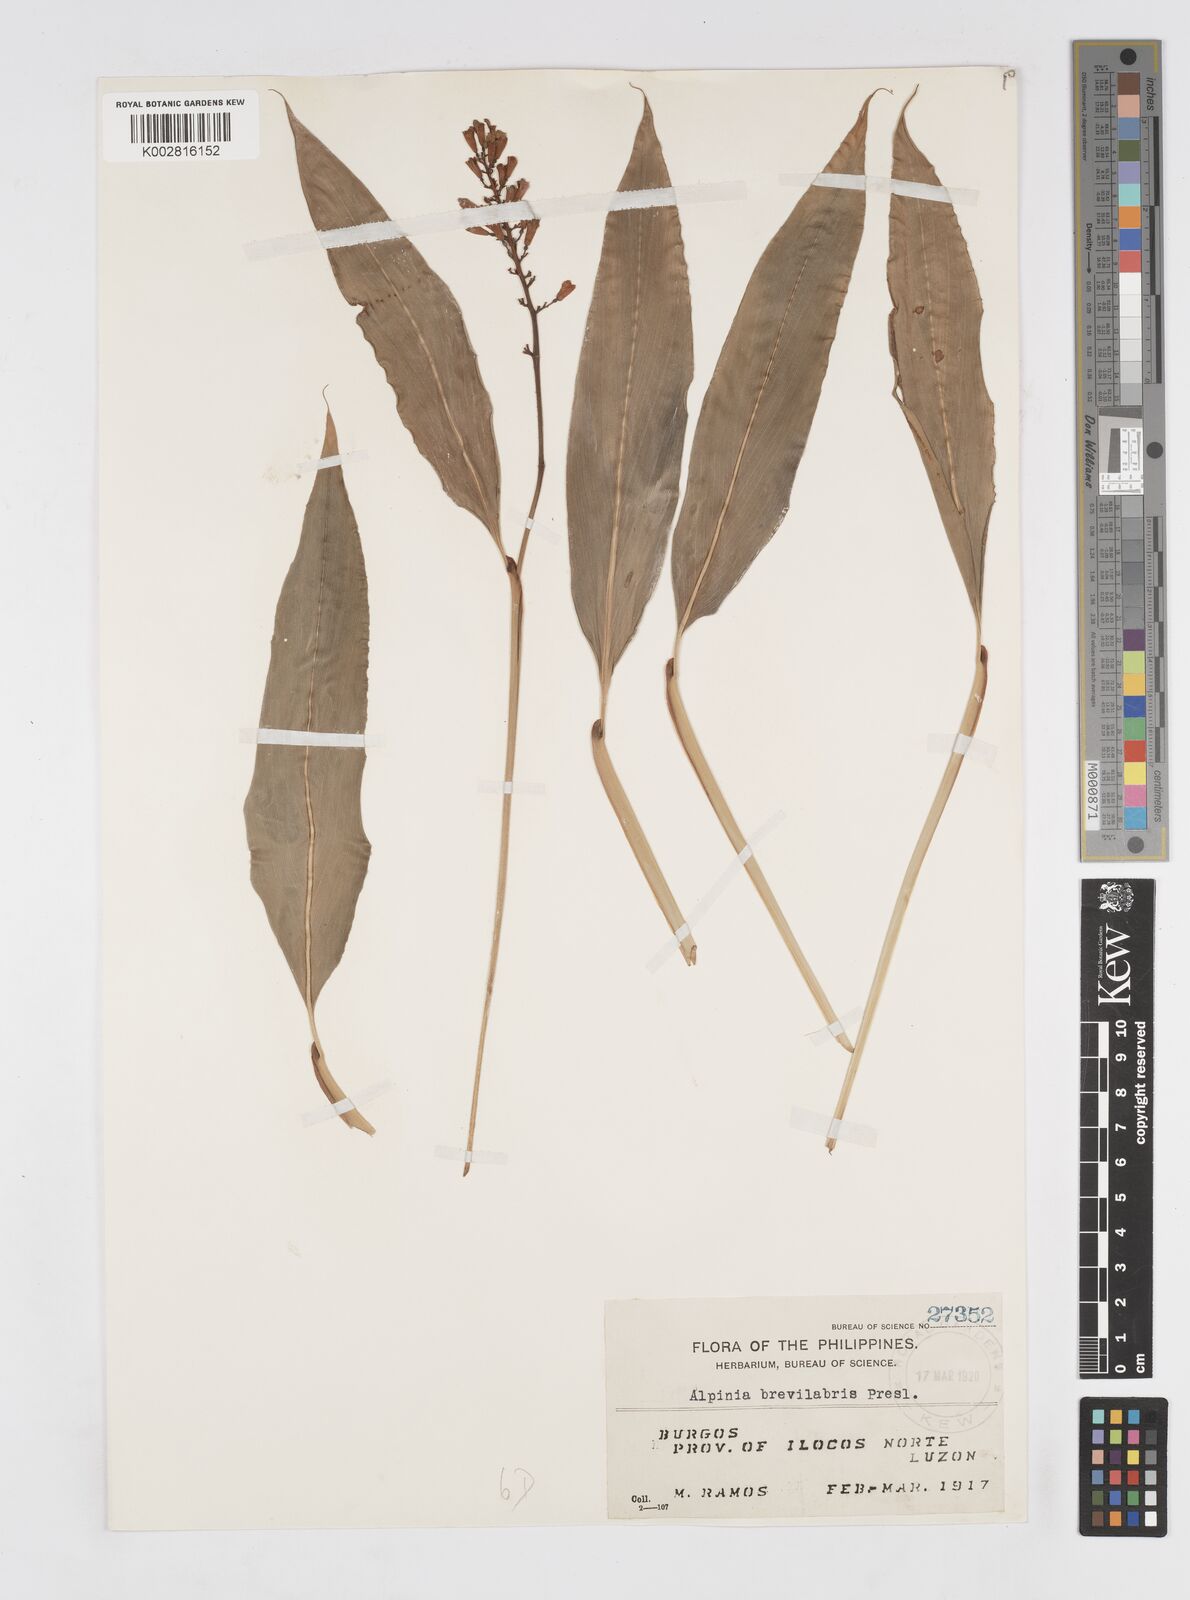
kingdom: Plantae
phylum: Tracheophyta
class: Liliopsida
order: Zingiberales
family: Zingiberaceae
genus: Alpinia
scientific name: Alpinia brevilabris
